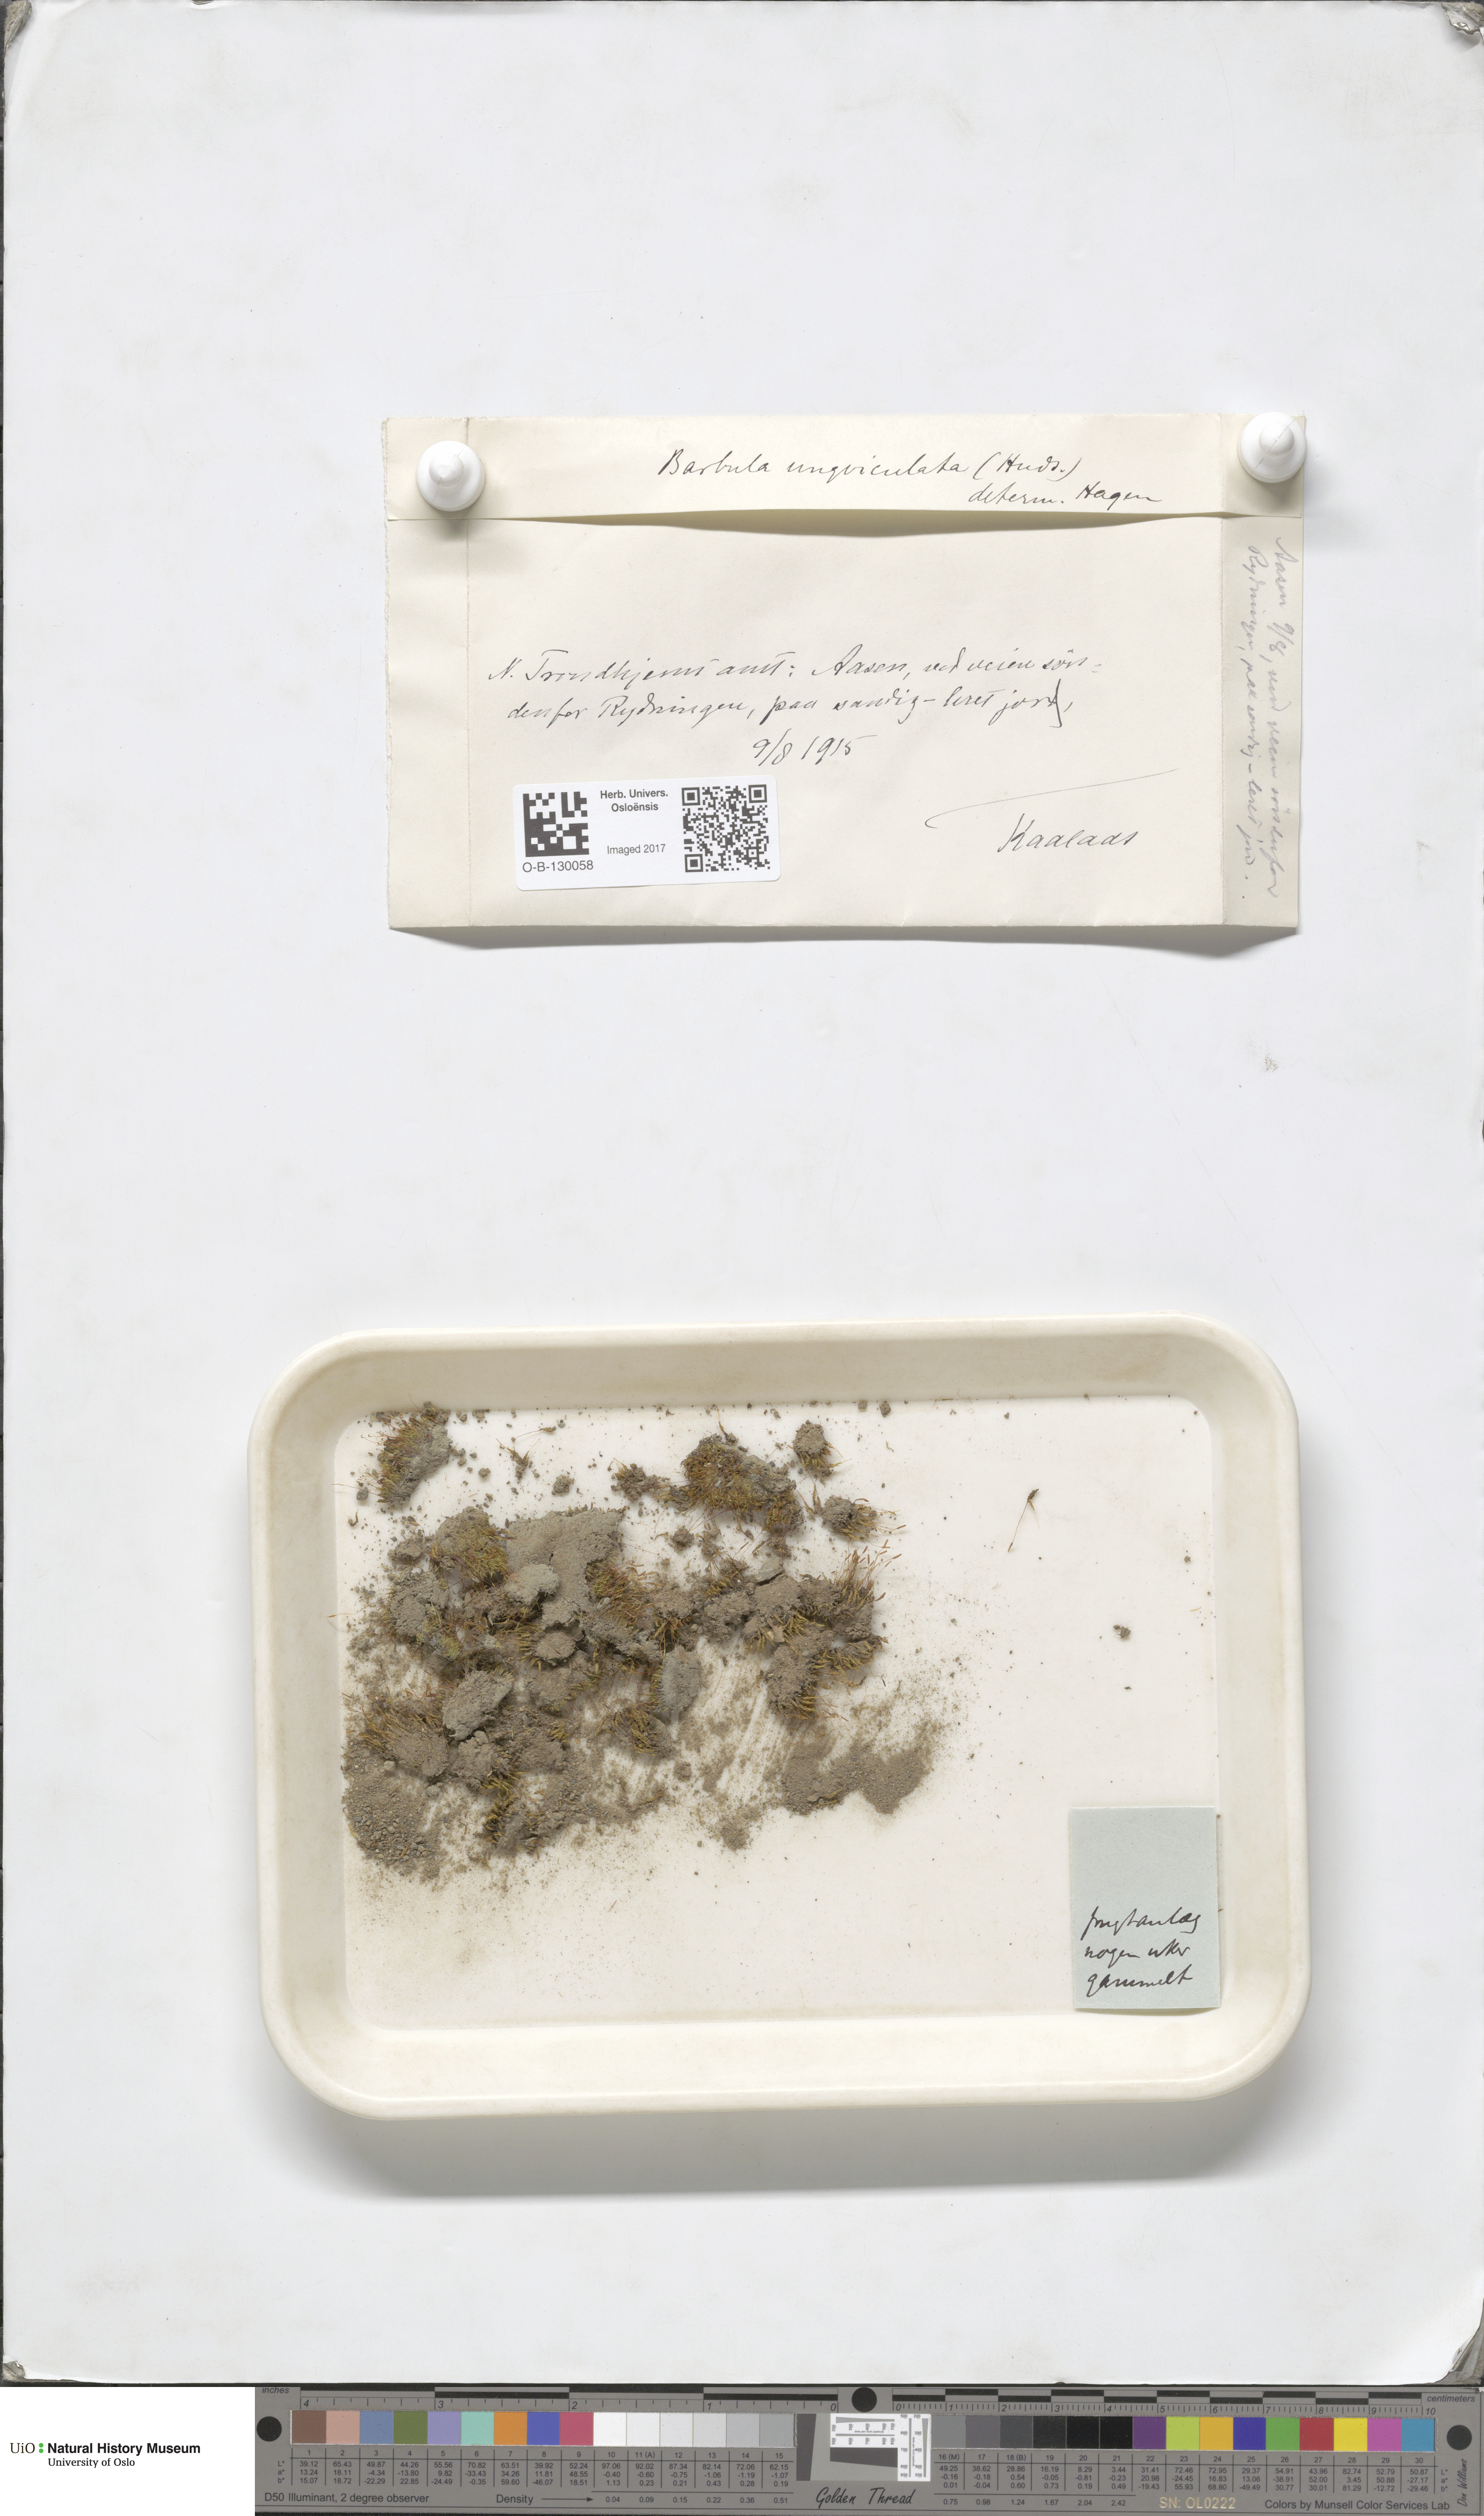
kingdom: Plantae
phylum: Bryophyta
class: Bryopsida
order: Pottiales
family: Pottiaceae
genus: Barbula
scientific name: Barbula unguiculata
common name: Prickly beard moss
